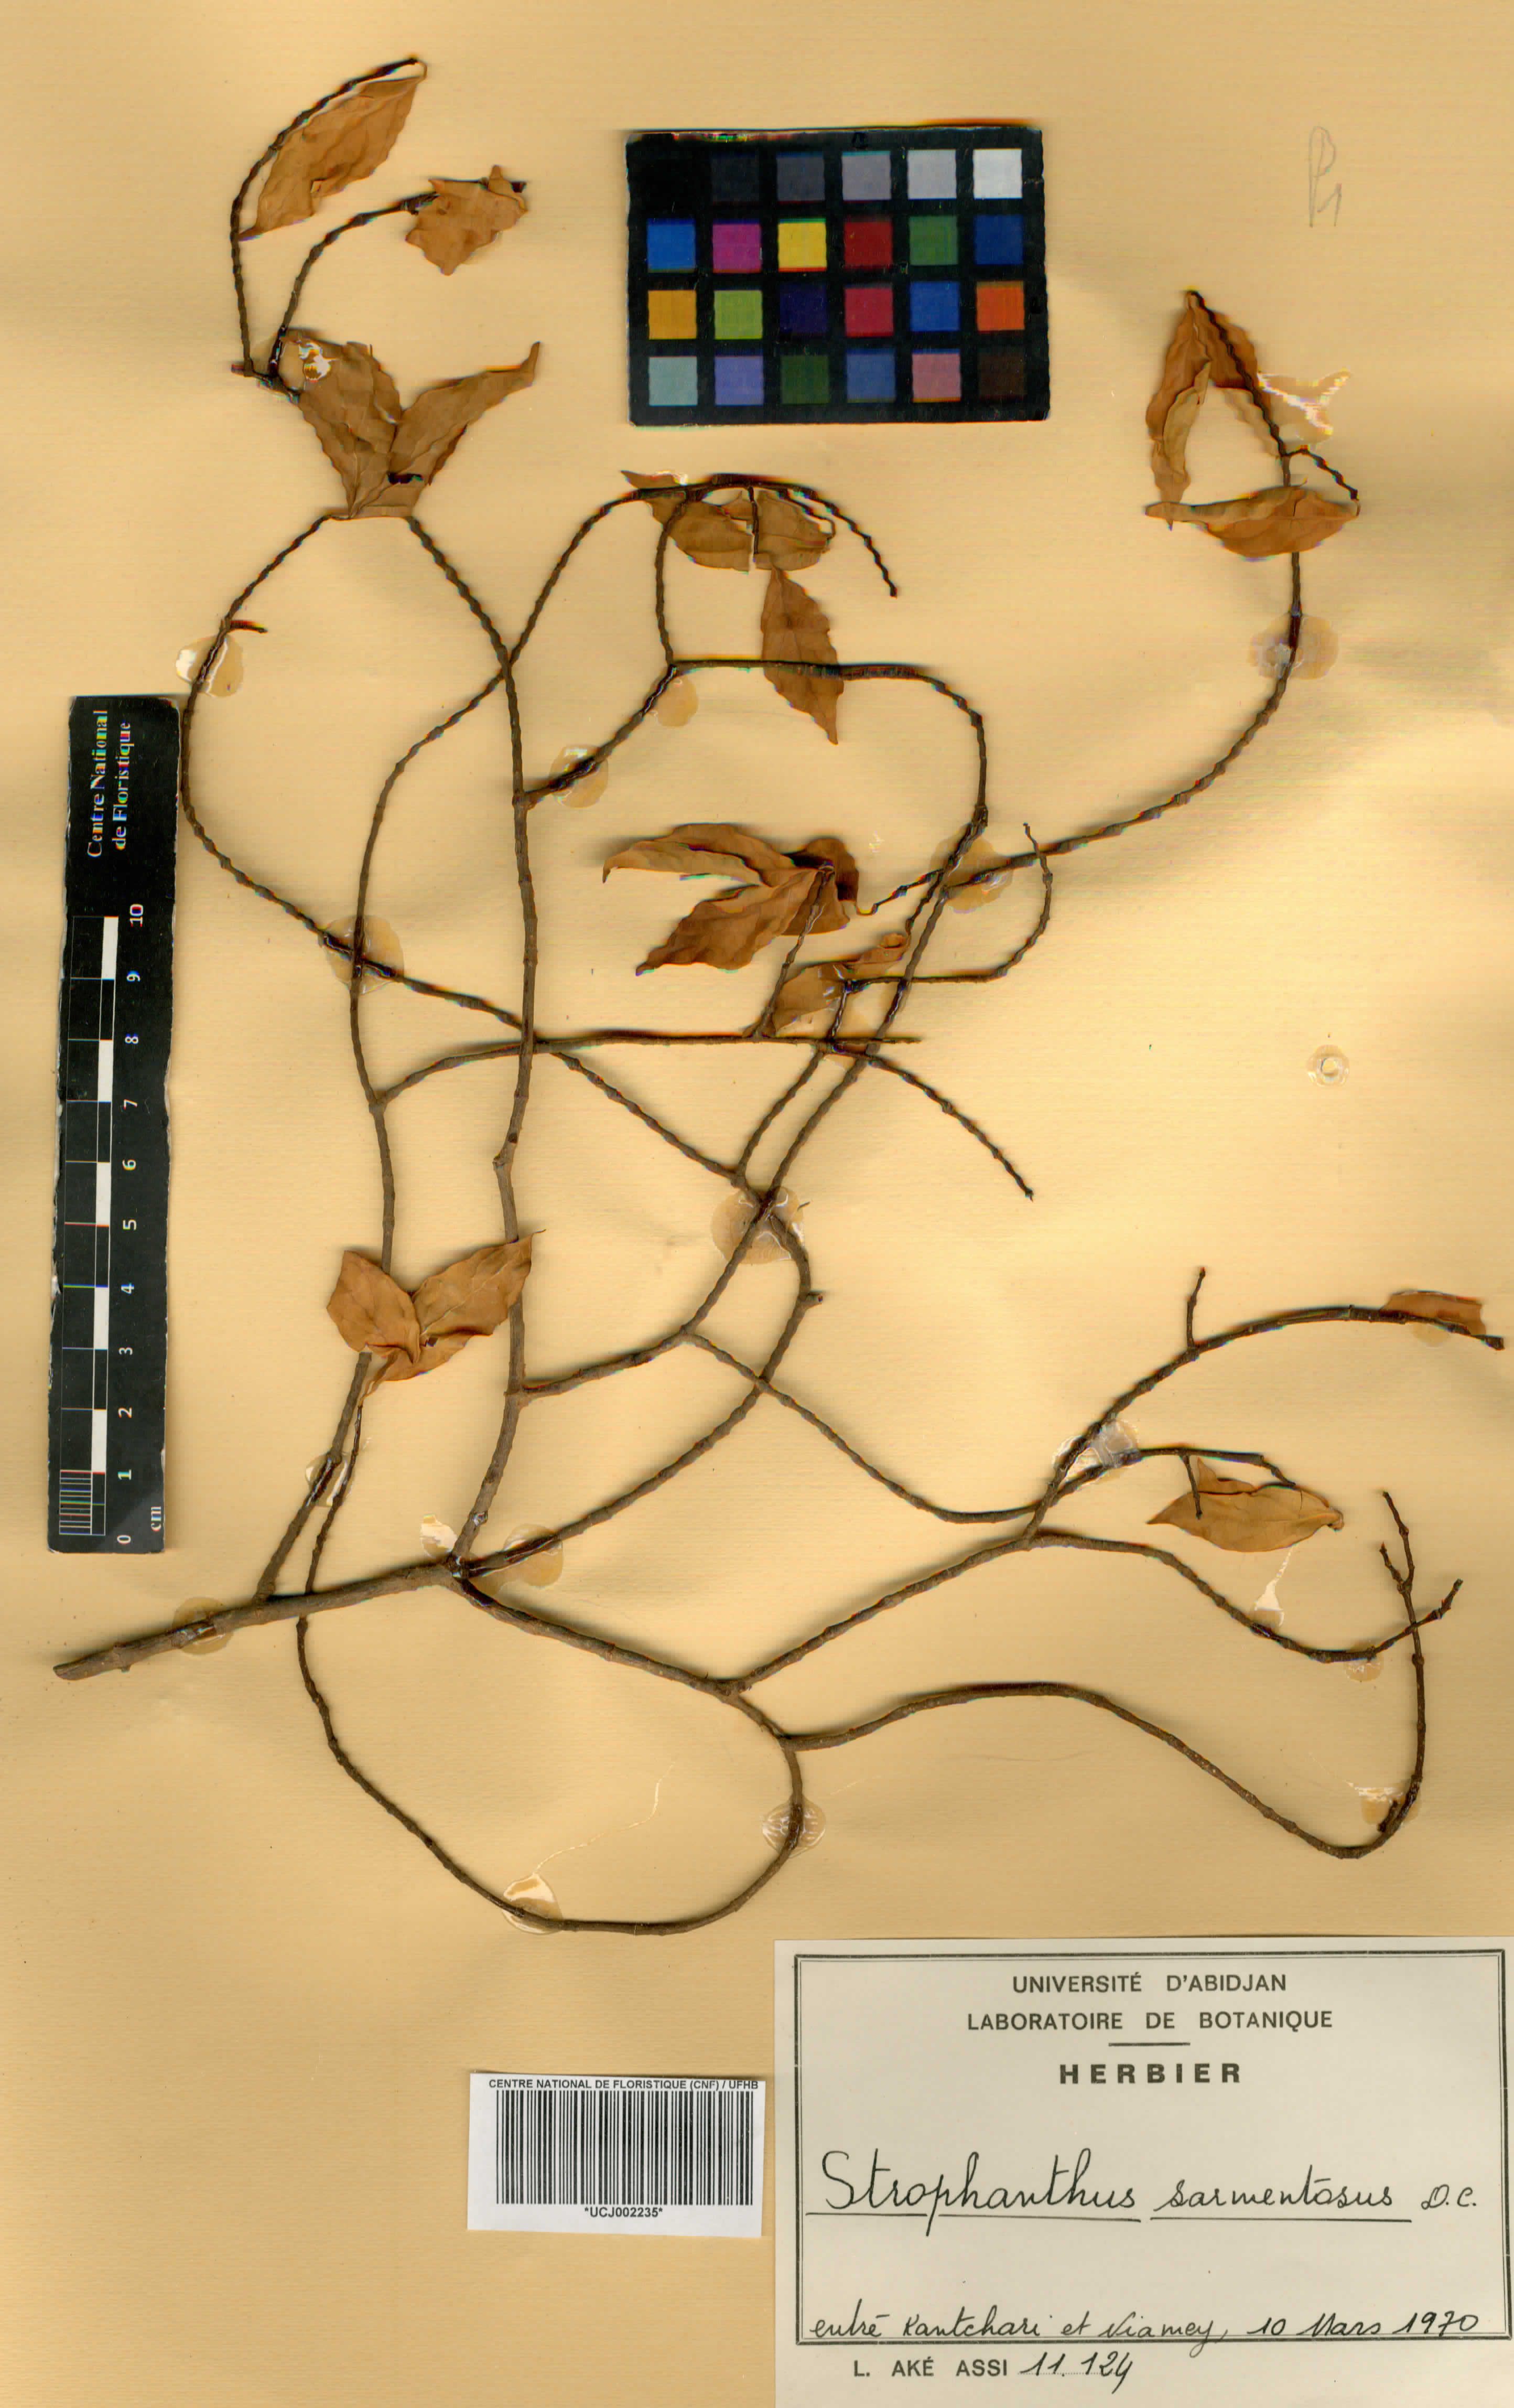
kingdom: Plantae
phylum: Tracheophyta
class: Magnoliopsida
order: Gentianales
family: Apocynaceae
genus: Strophanthus
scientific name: Strophanthus sarmentosus
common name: Poison arrowvine
